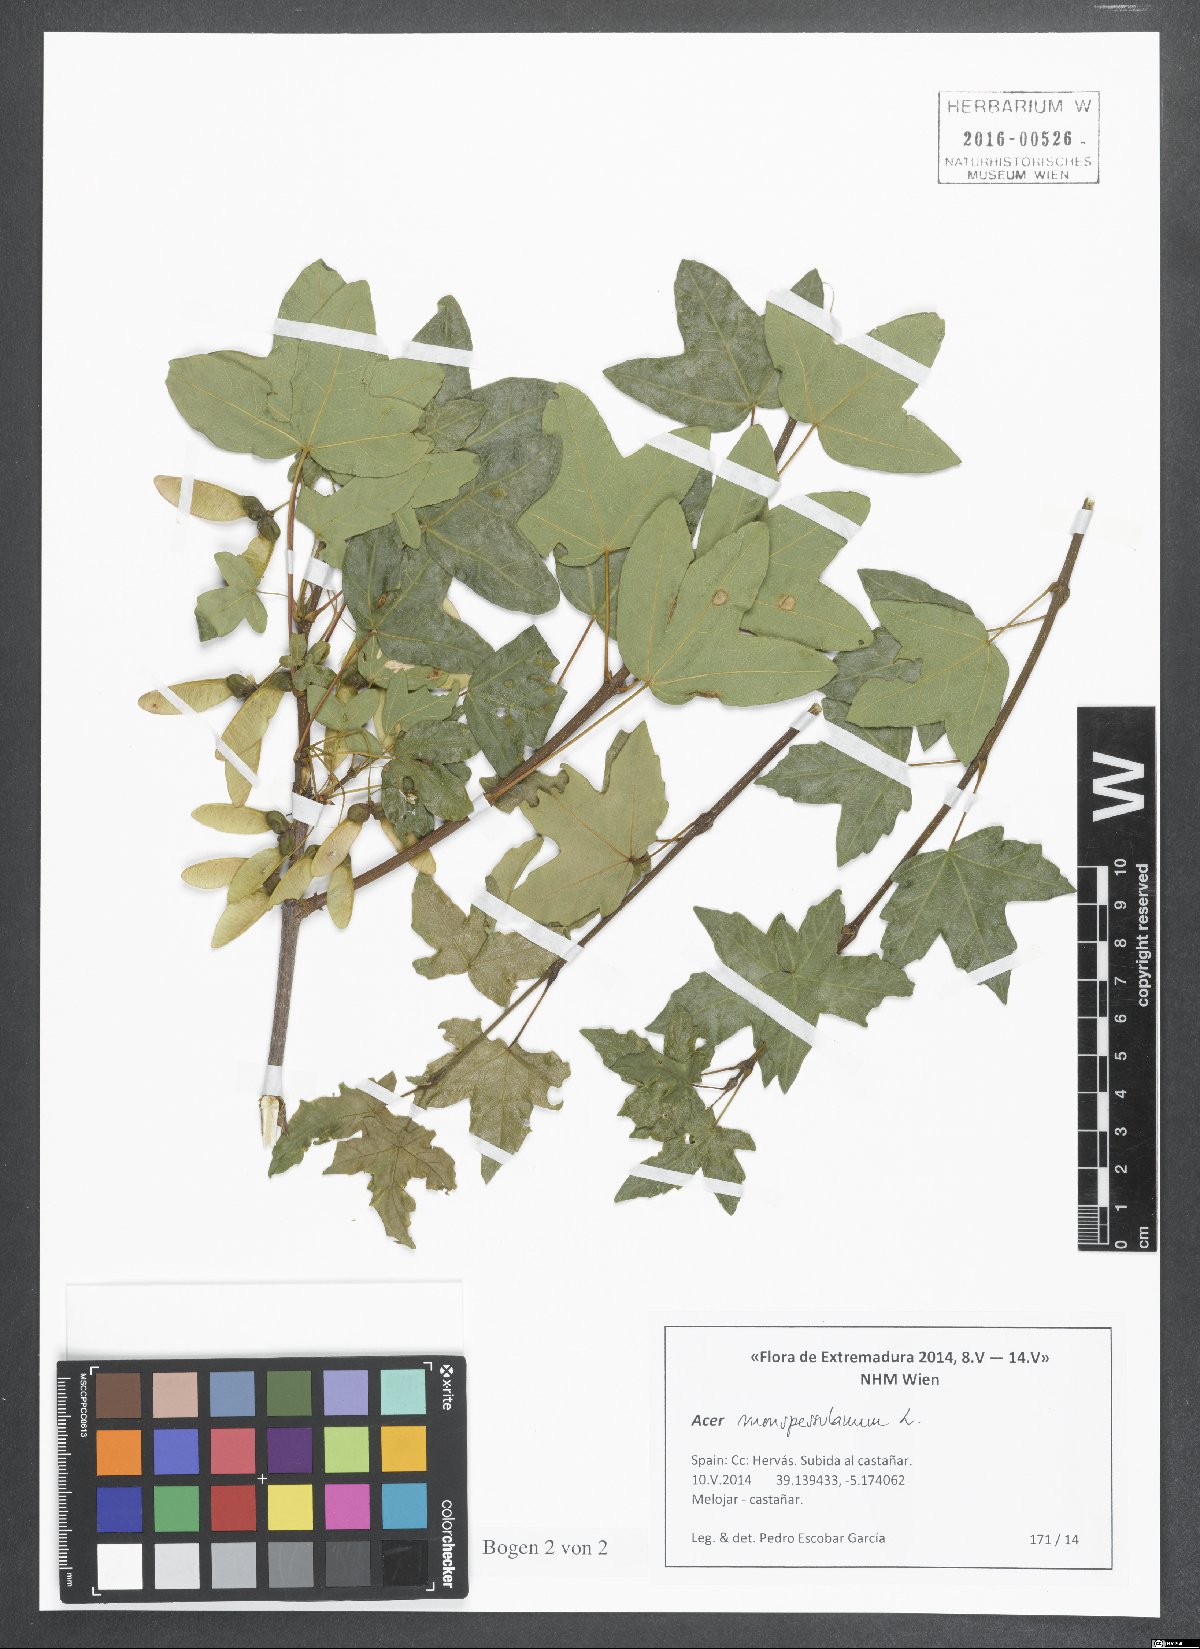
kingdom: Plantae
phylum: Tracheophyta
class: Magnoliopsida
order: Sapindales
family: Sapindaceae
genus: Acer
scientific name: Acer monspessulanum
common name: Montpellier maple
